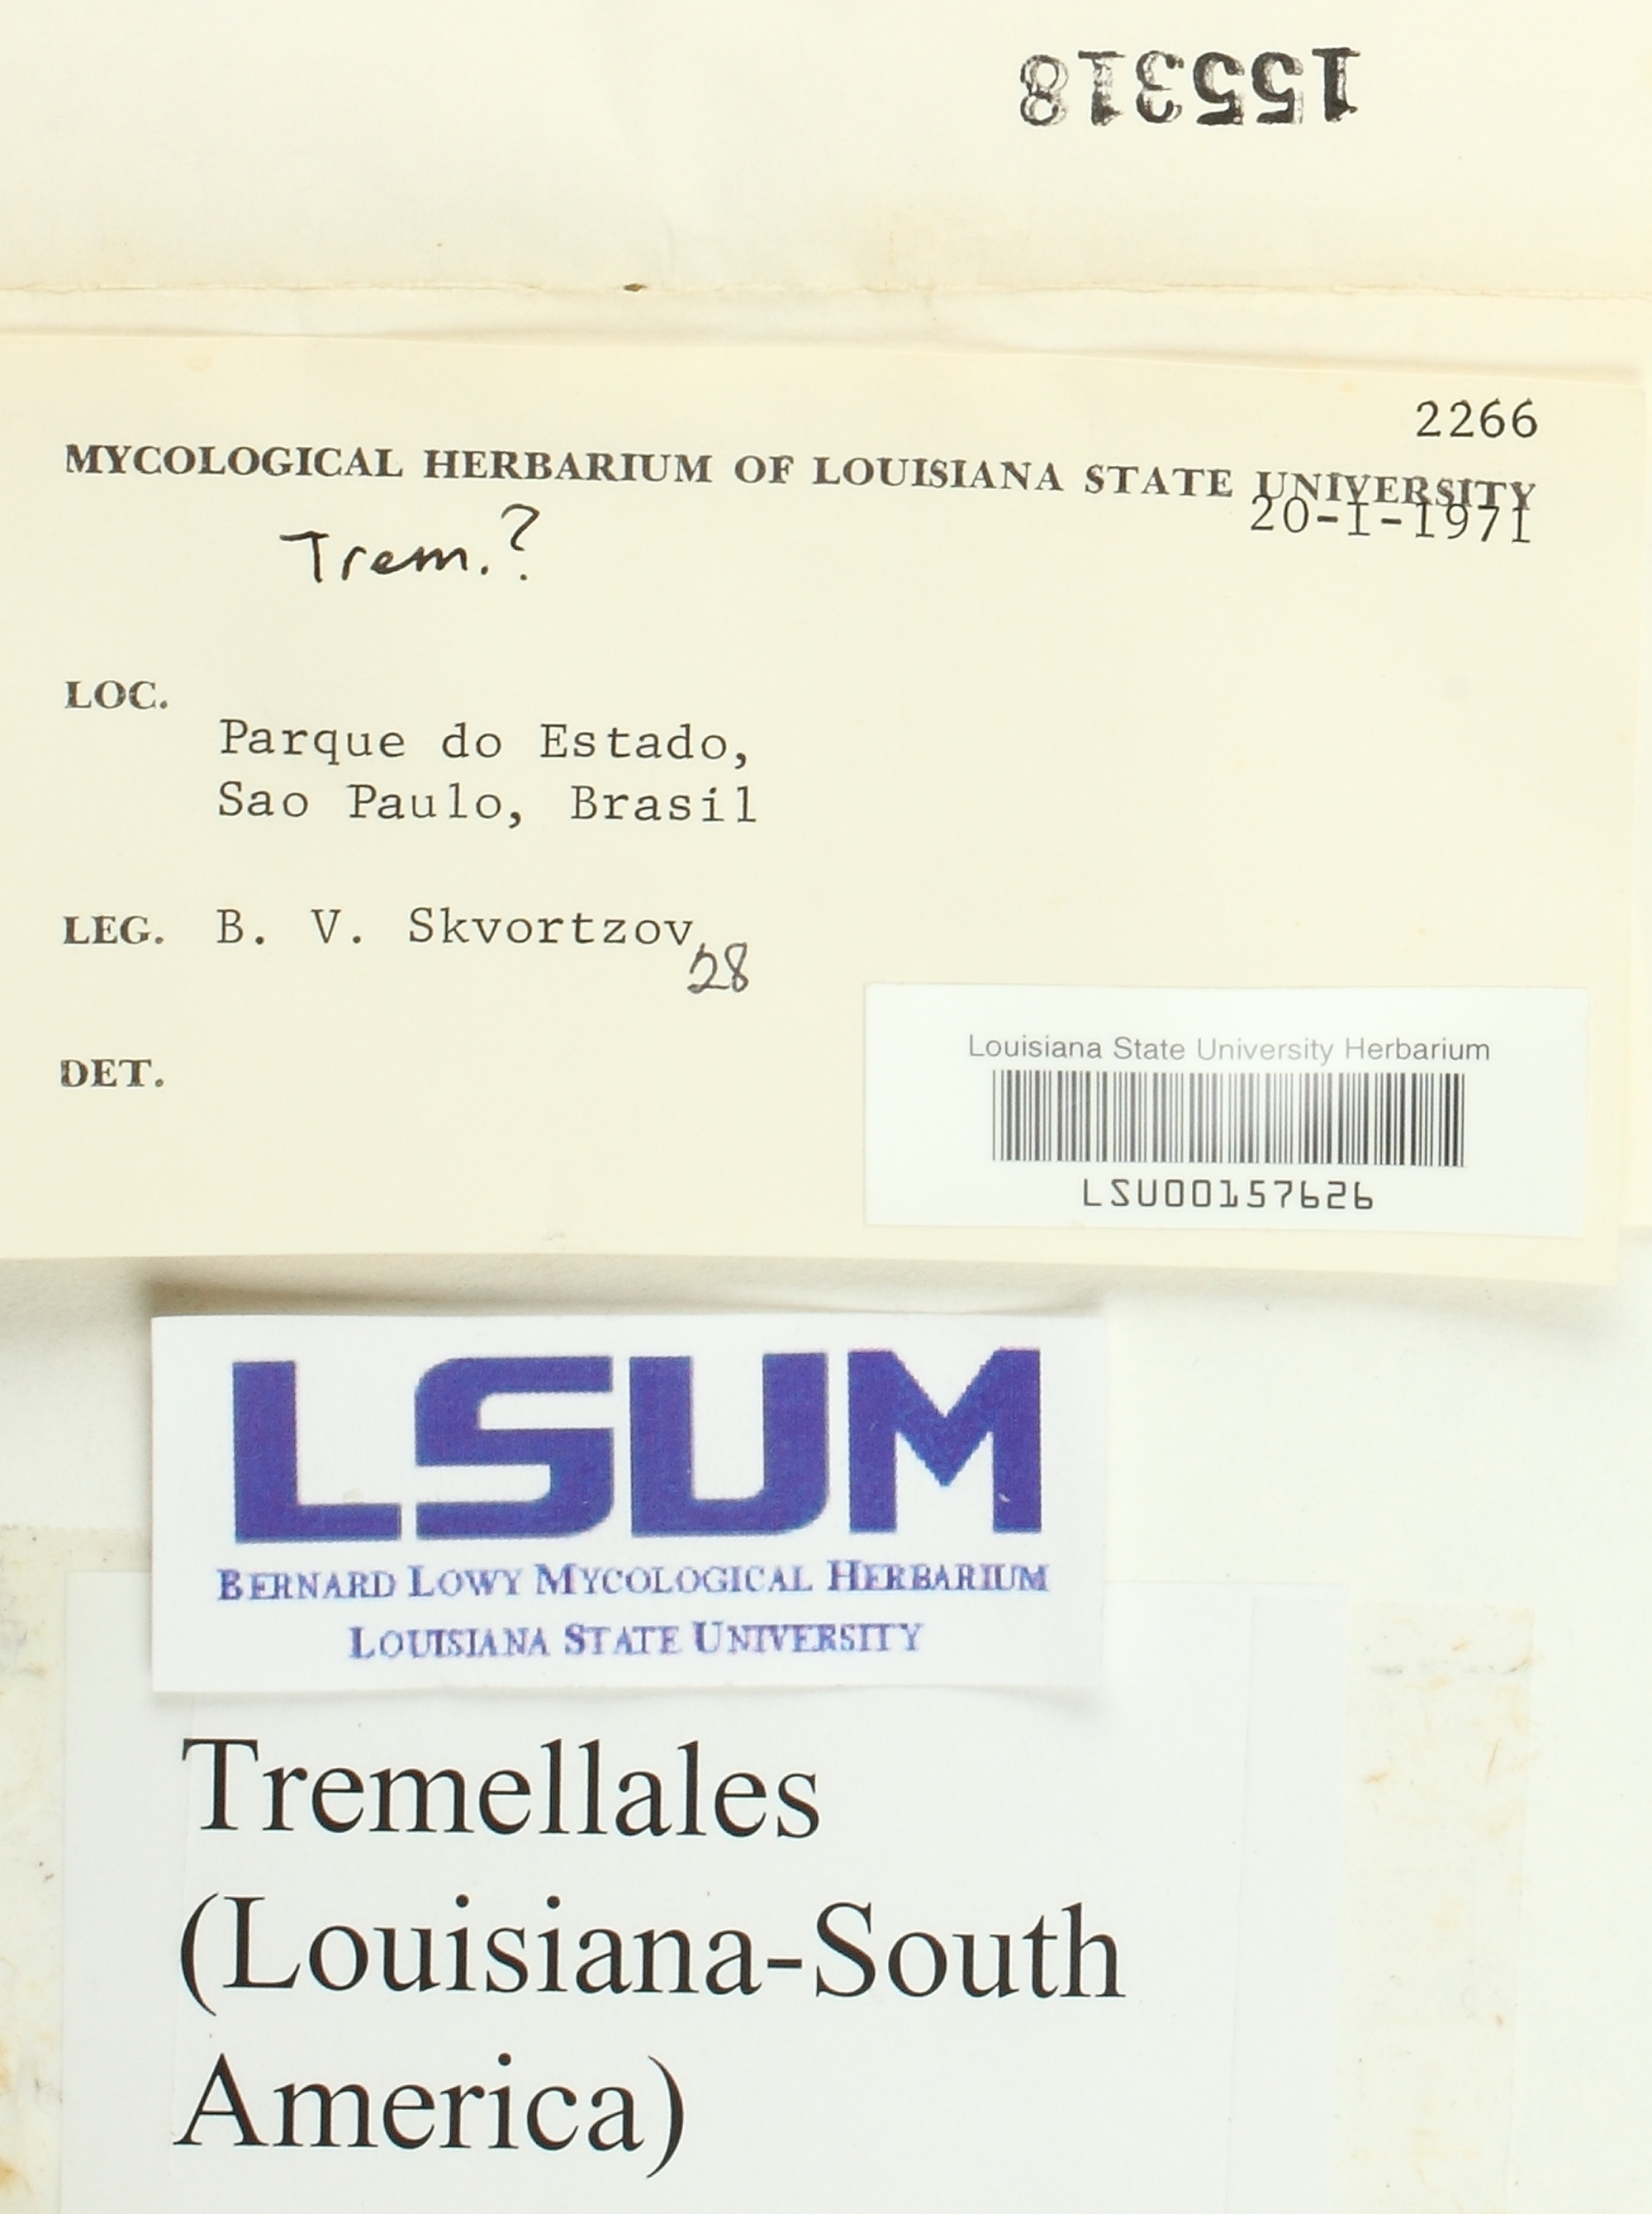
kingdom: Fungi
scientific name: Fungi
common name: Fungi
